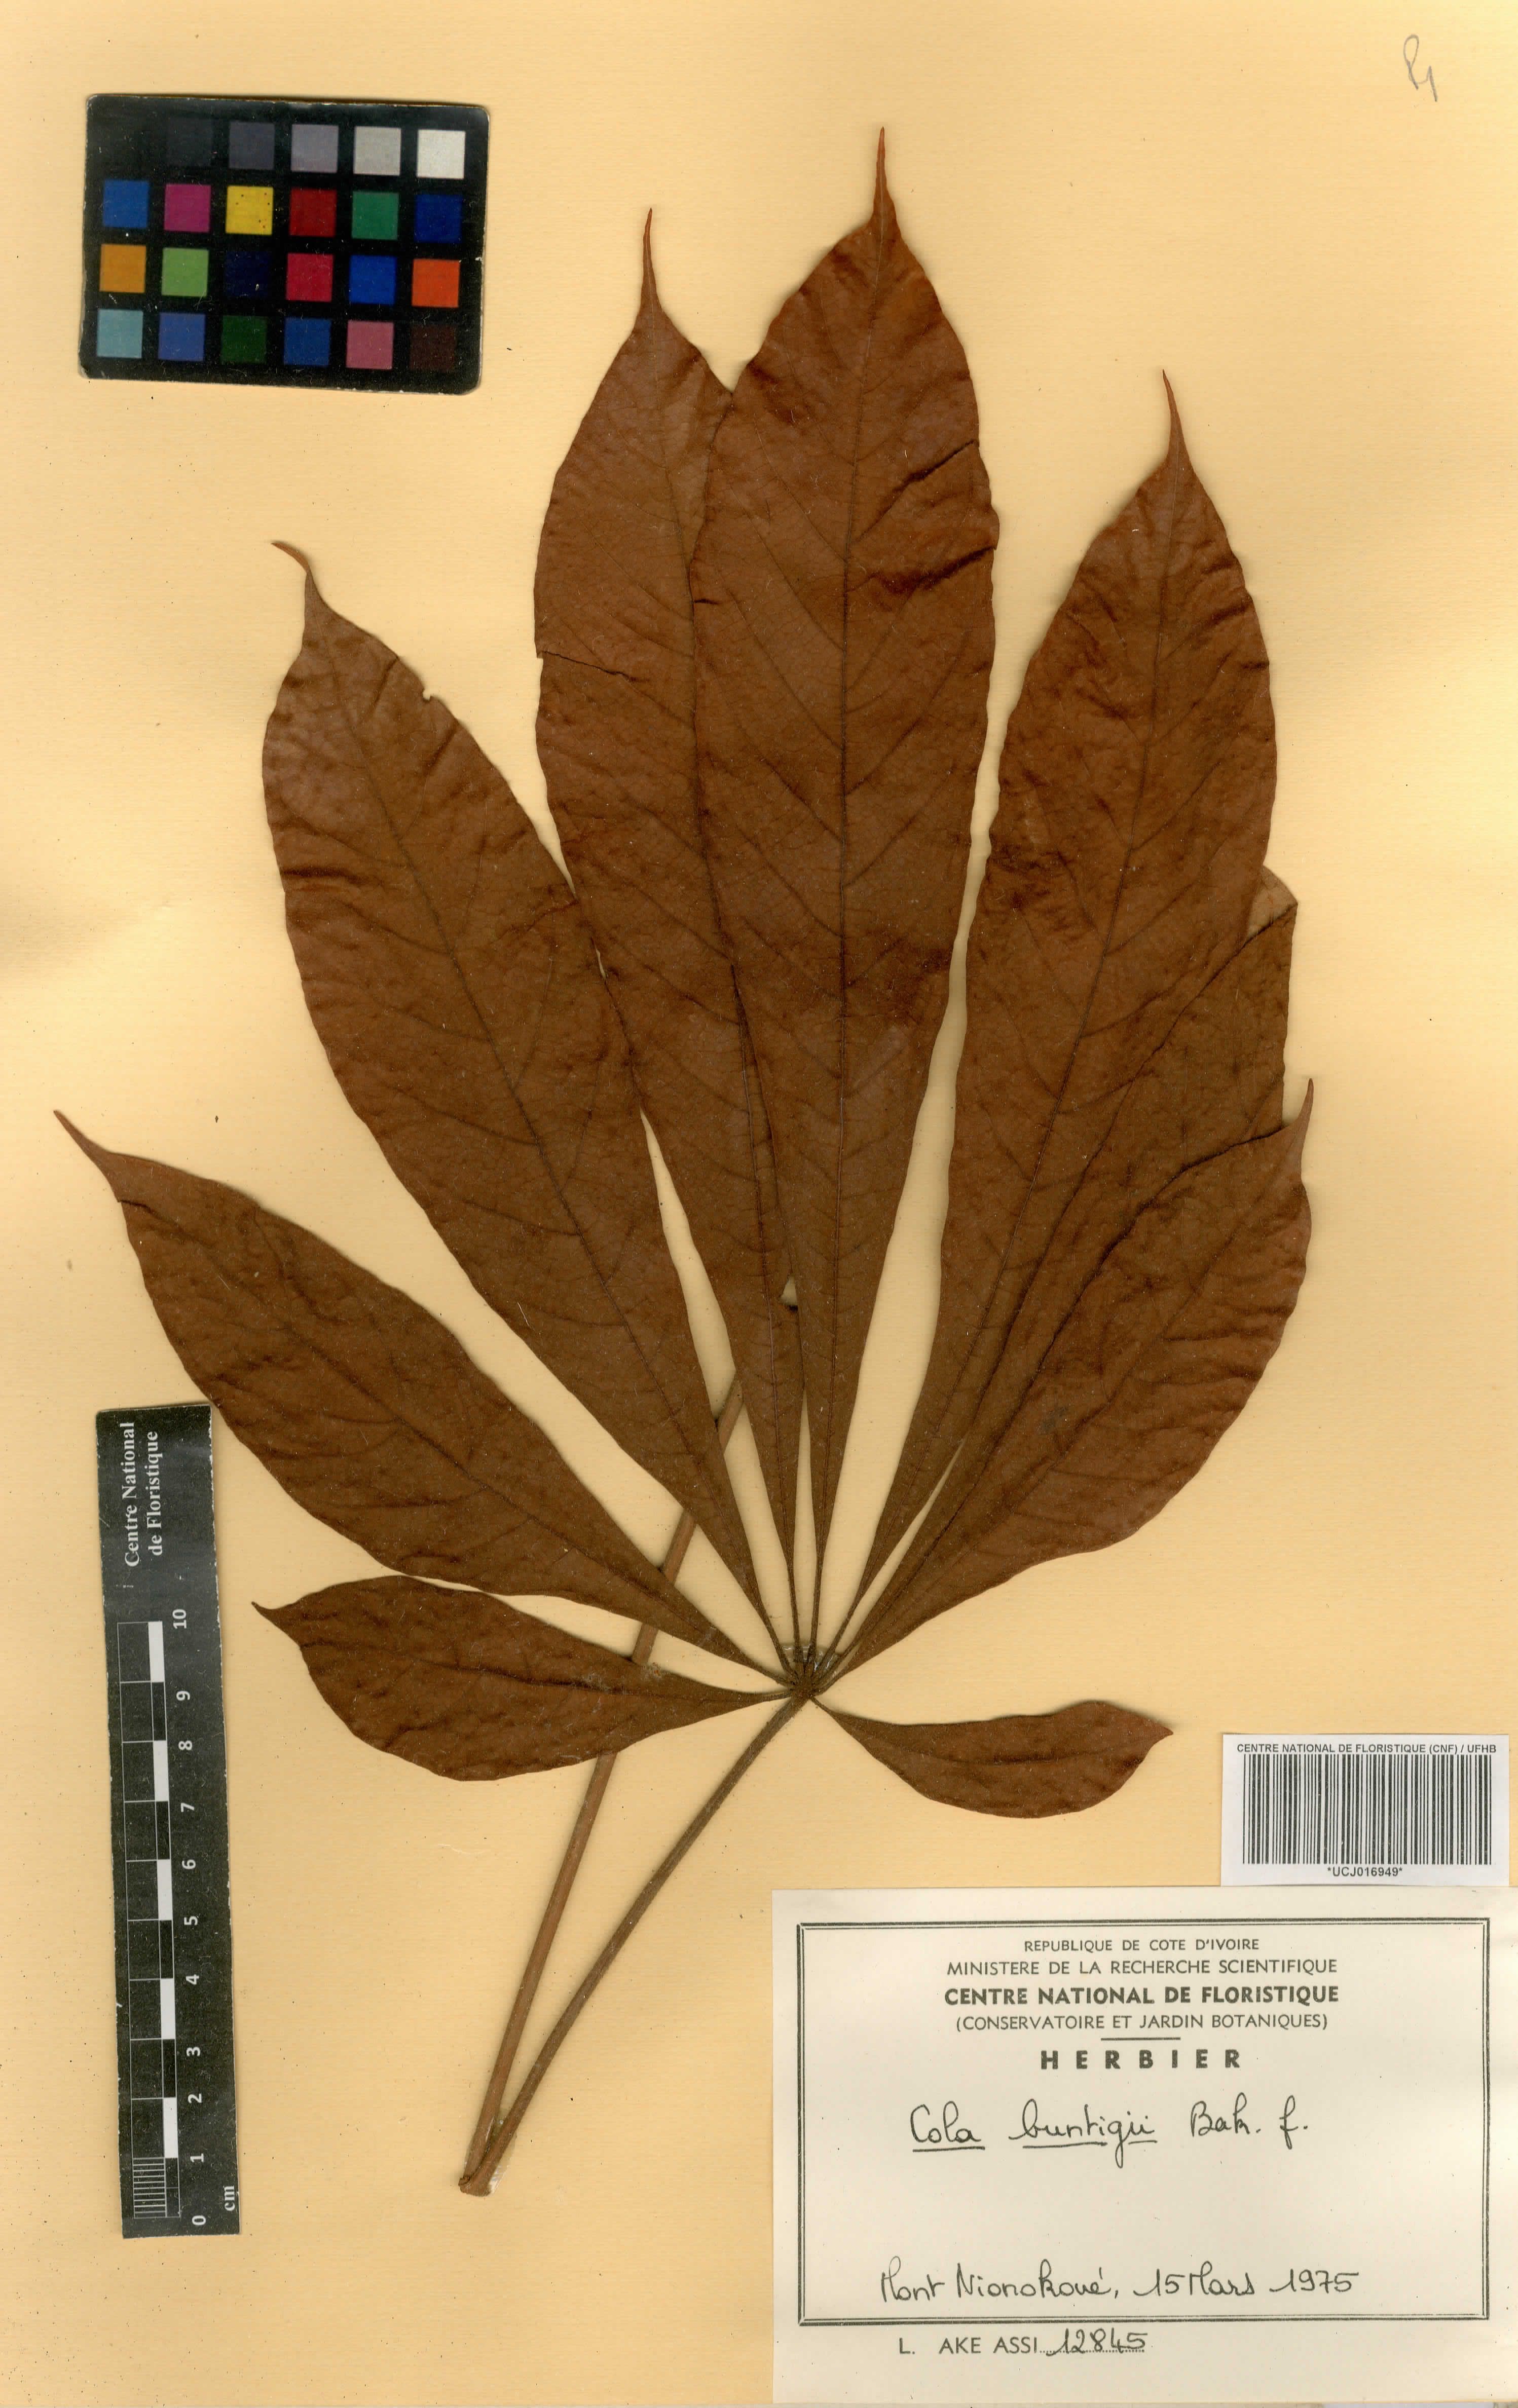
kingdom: Plantae
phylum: Tracheophyta
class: Magnoliopsida
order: Malvales
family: Malvaceae
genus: Cola
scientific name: Cola buntingii
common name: Bunting's cola
